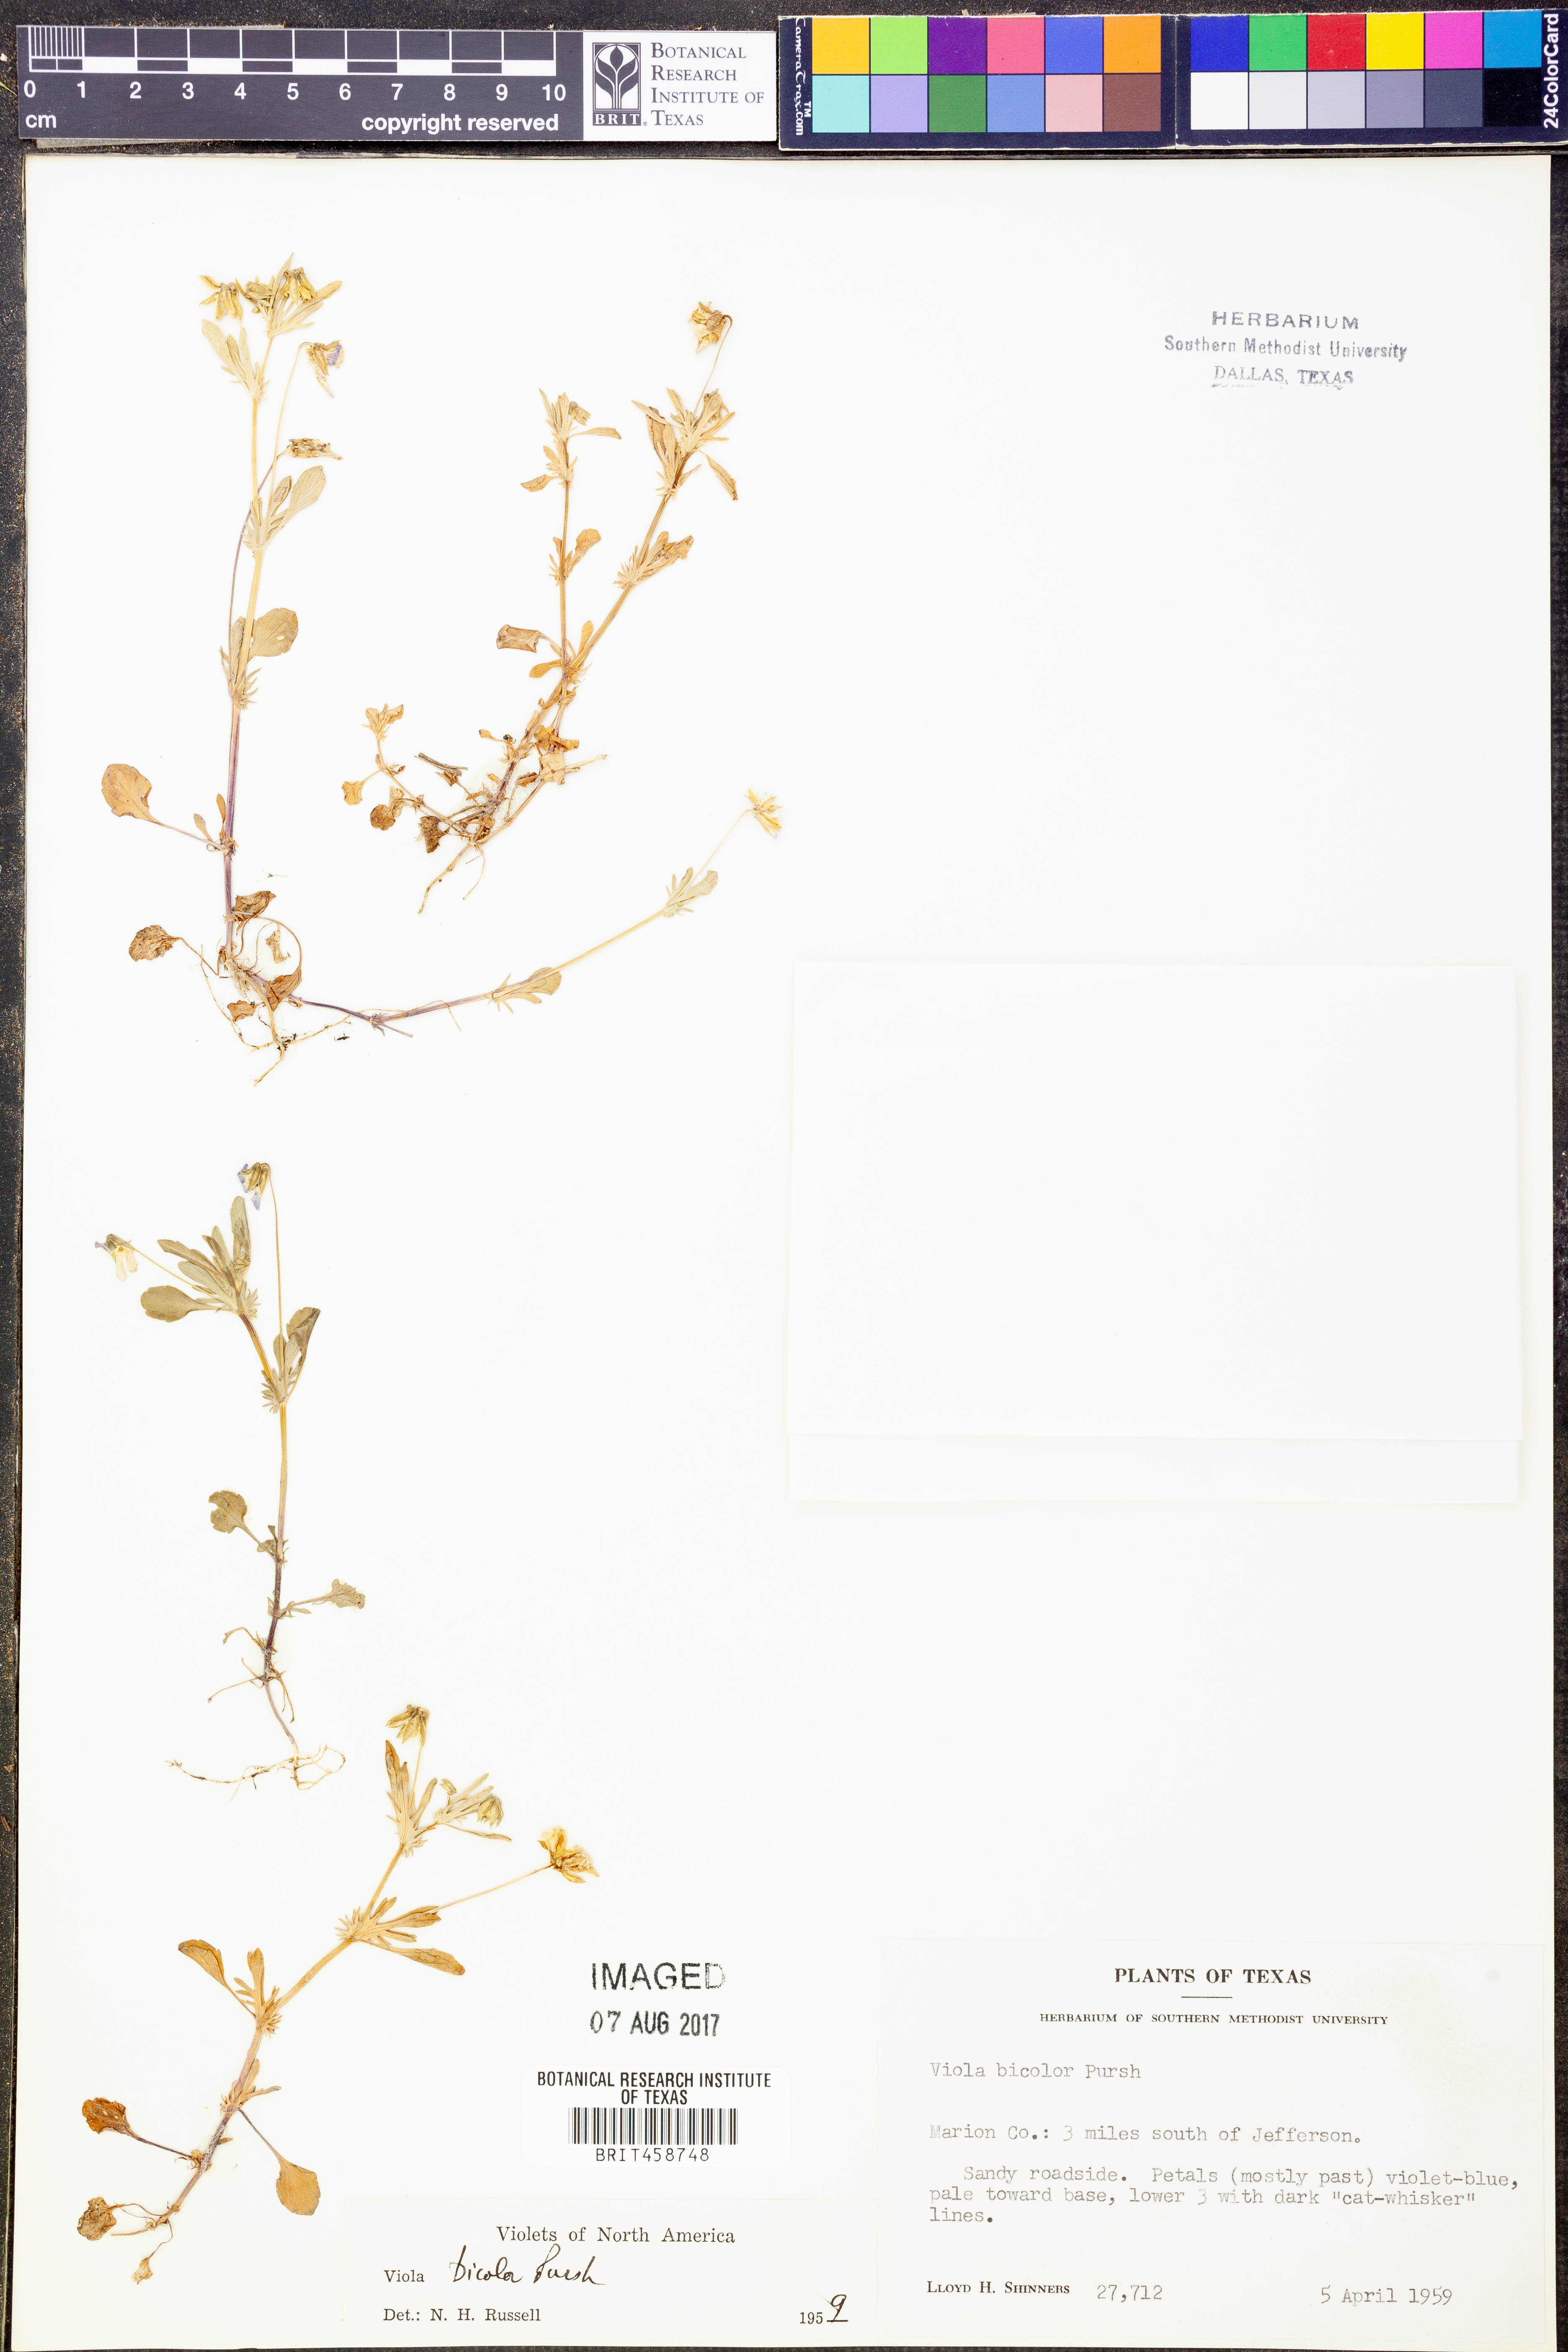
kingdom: Plantae
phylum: Tracheophyta
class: Magnoliopsida
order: Malpighiales
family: Violaceae
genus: Viola
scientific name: Viola rafinesquei
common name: American field pansy
